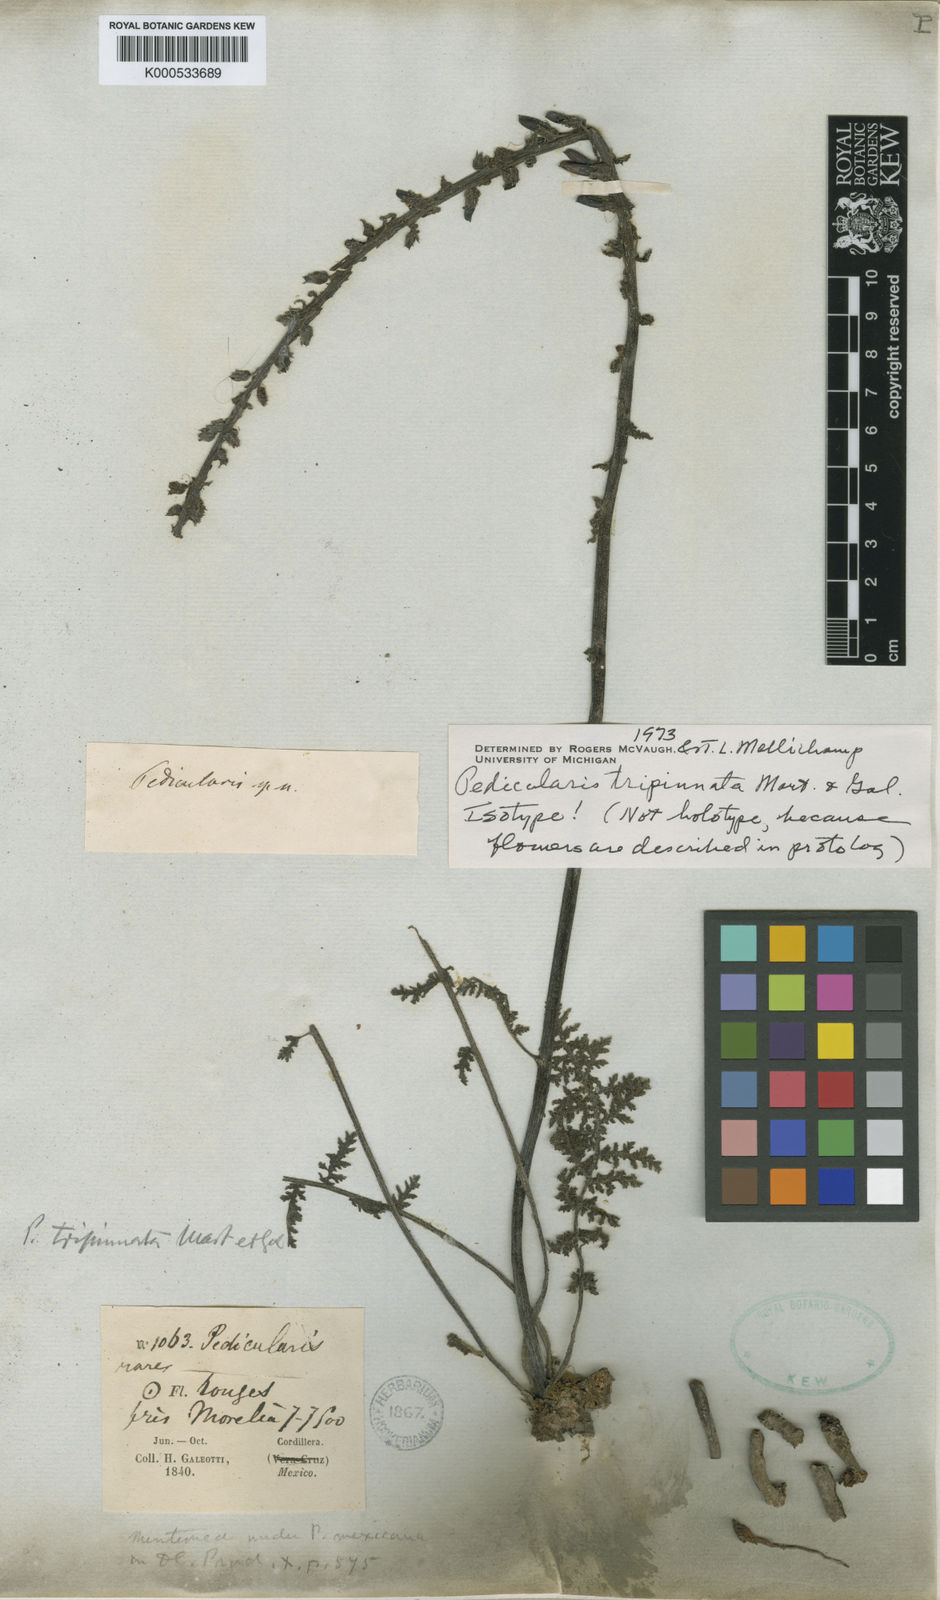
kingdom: Plantae
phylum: Tracheophyta
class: Magnoliopsida
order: Lamiales
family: Orobanchaceae
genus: Pedicularis
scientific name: Pedicularis tripinnata
